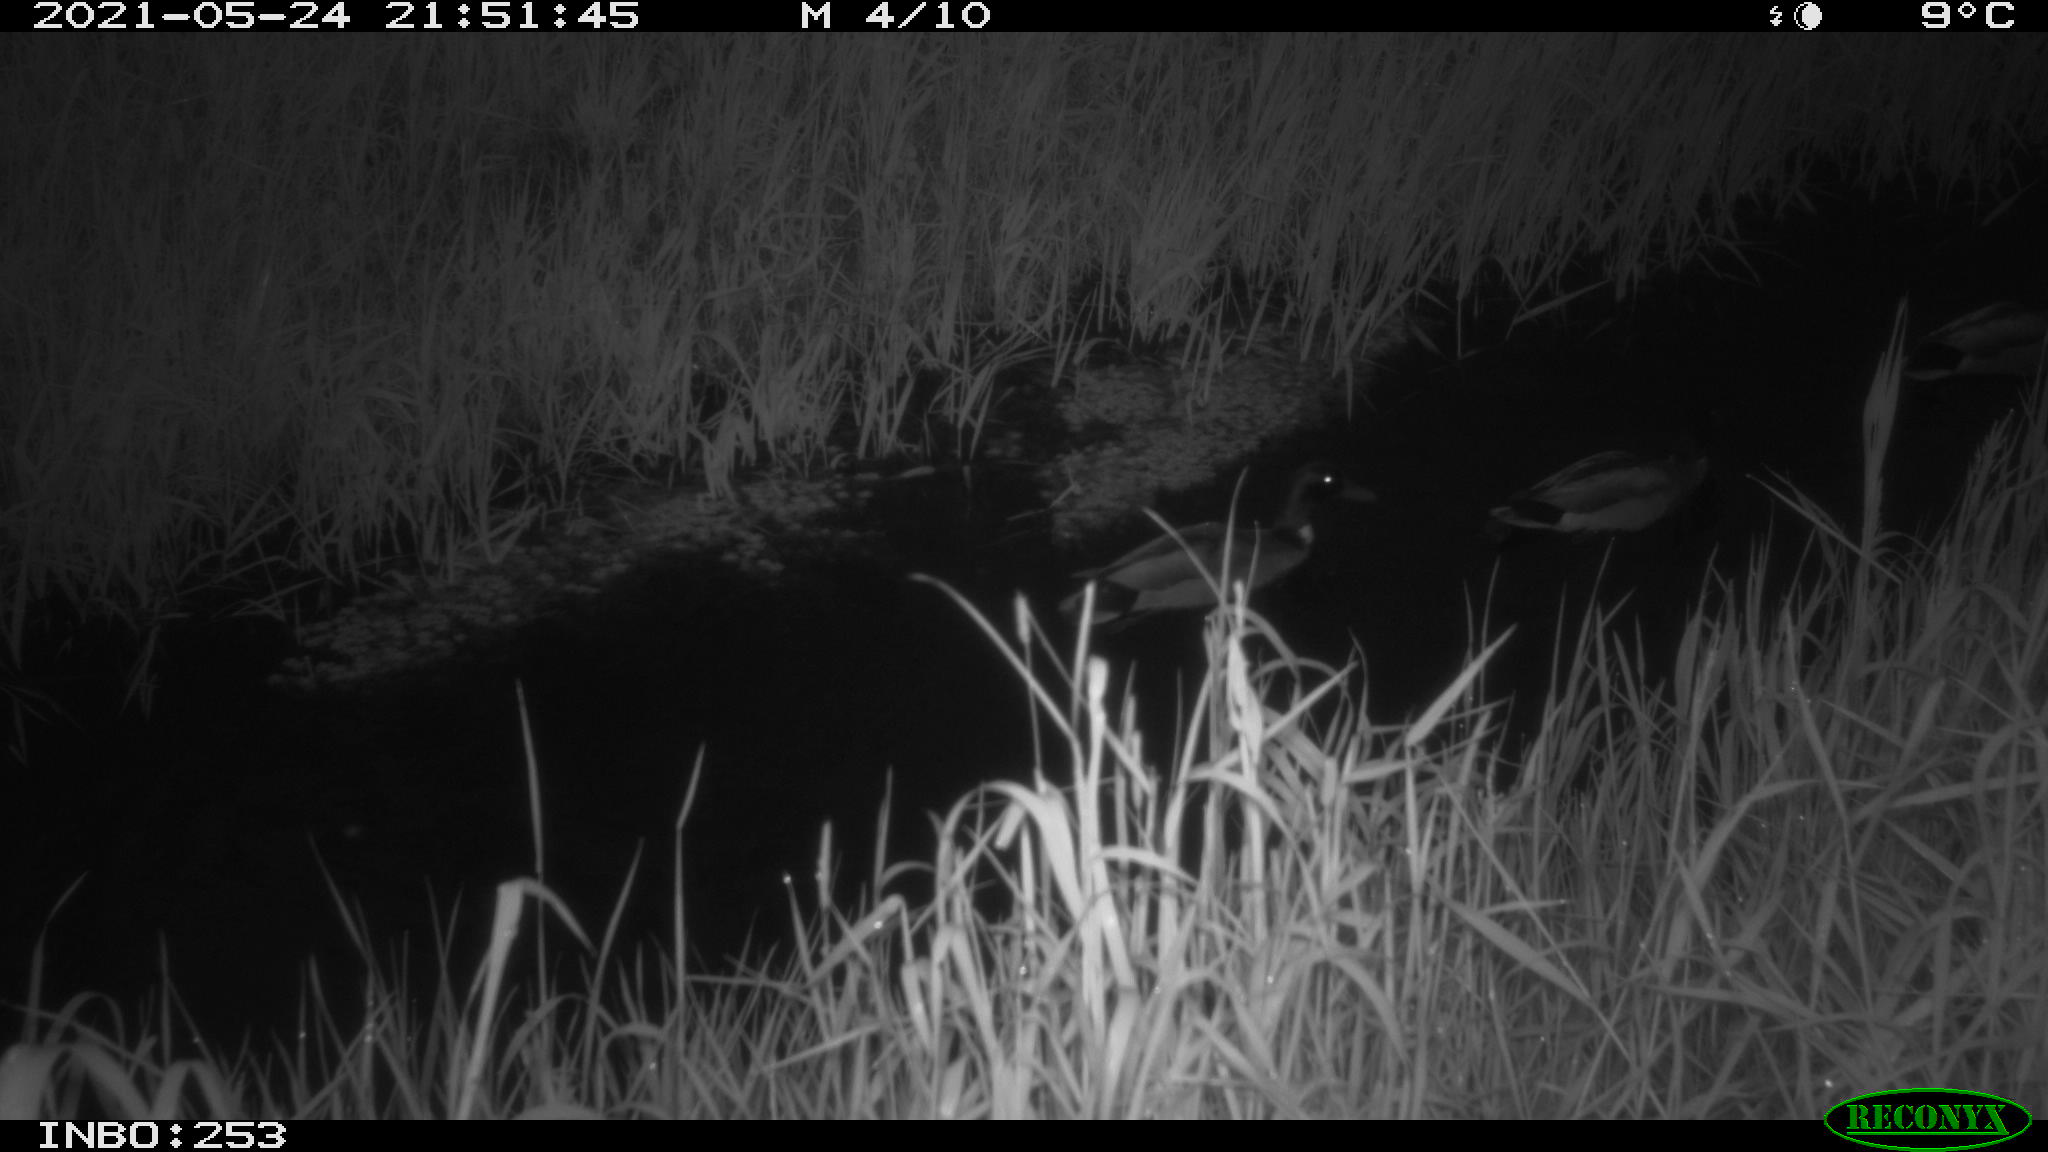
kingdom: Animalia
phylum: Chordata
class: Aves
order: Anseriformes
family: Anatidae
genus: Anas
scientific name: Anas platyrhynchos
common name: Mallard
